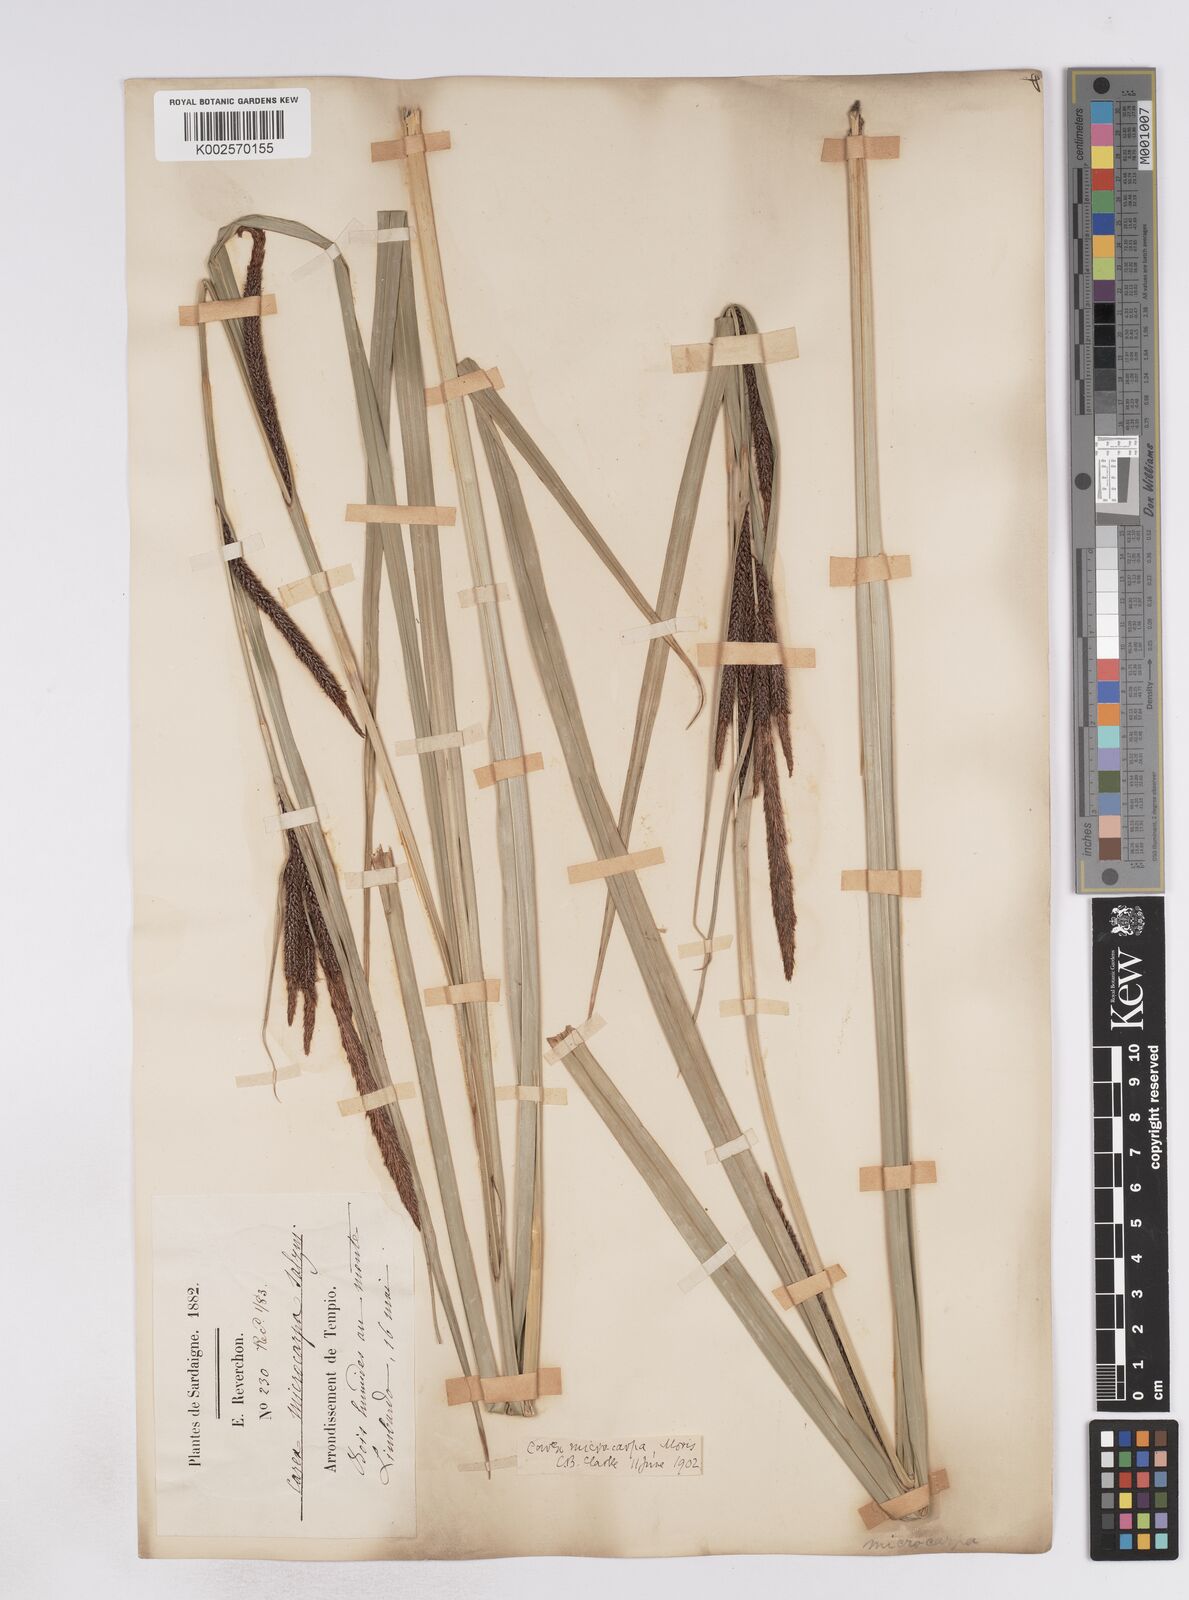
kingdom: Plantae
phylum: Tracheophyta
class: Liliopsida
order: Poales
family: Cyperaceae
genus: Carex
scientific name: Carex microcarpa
